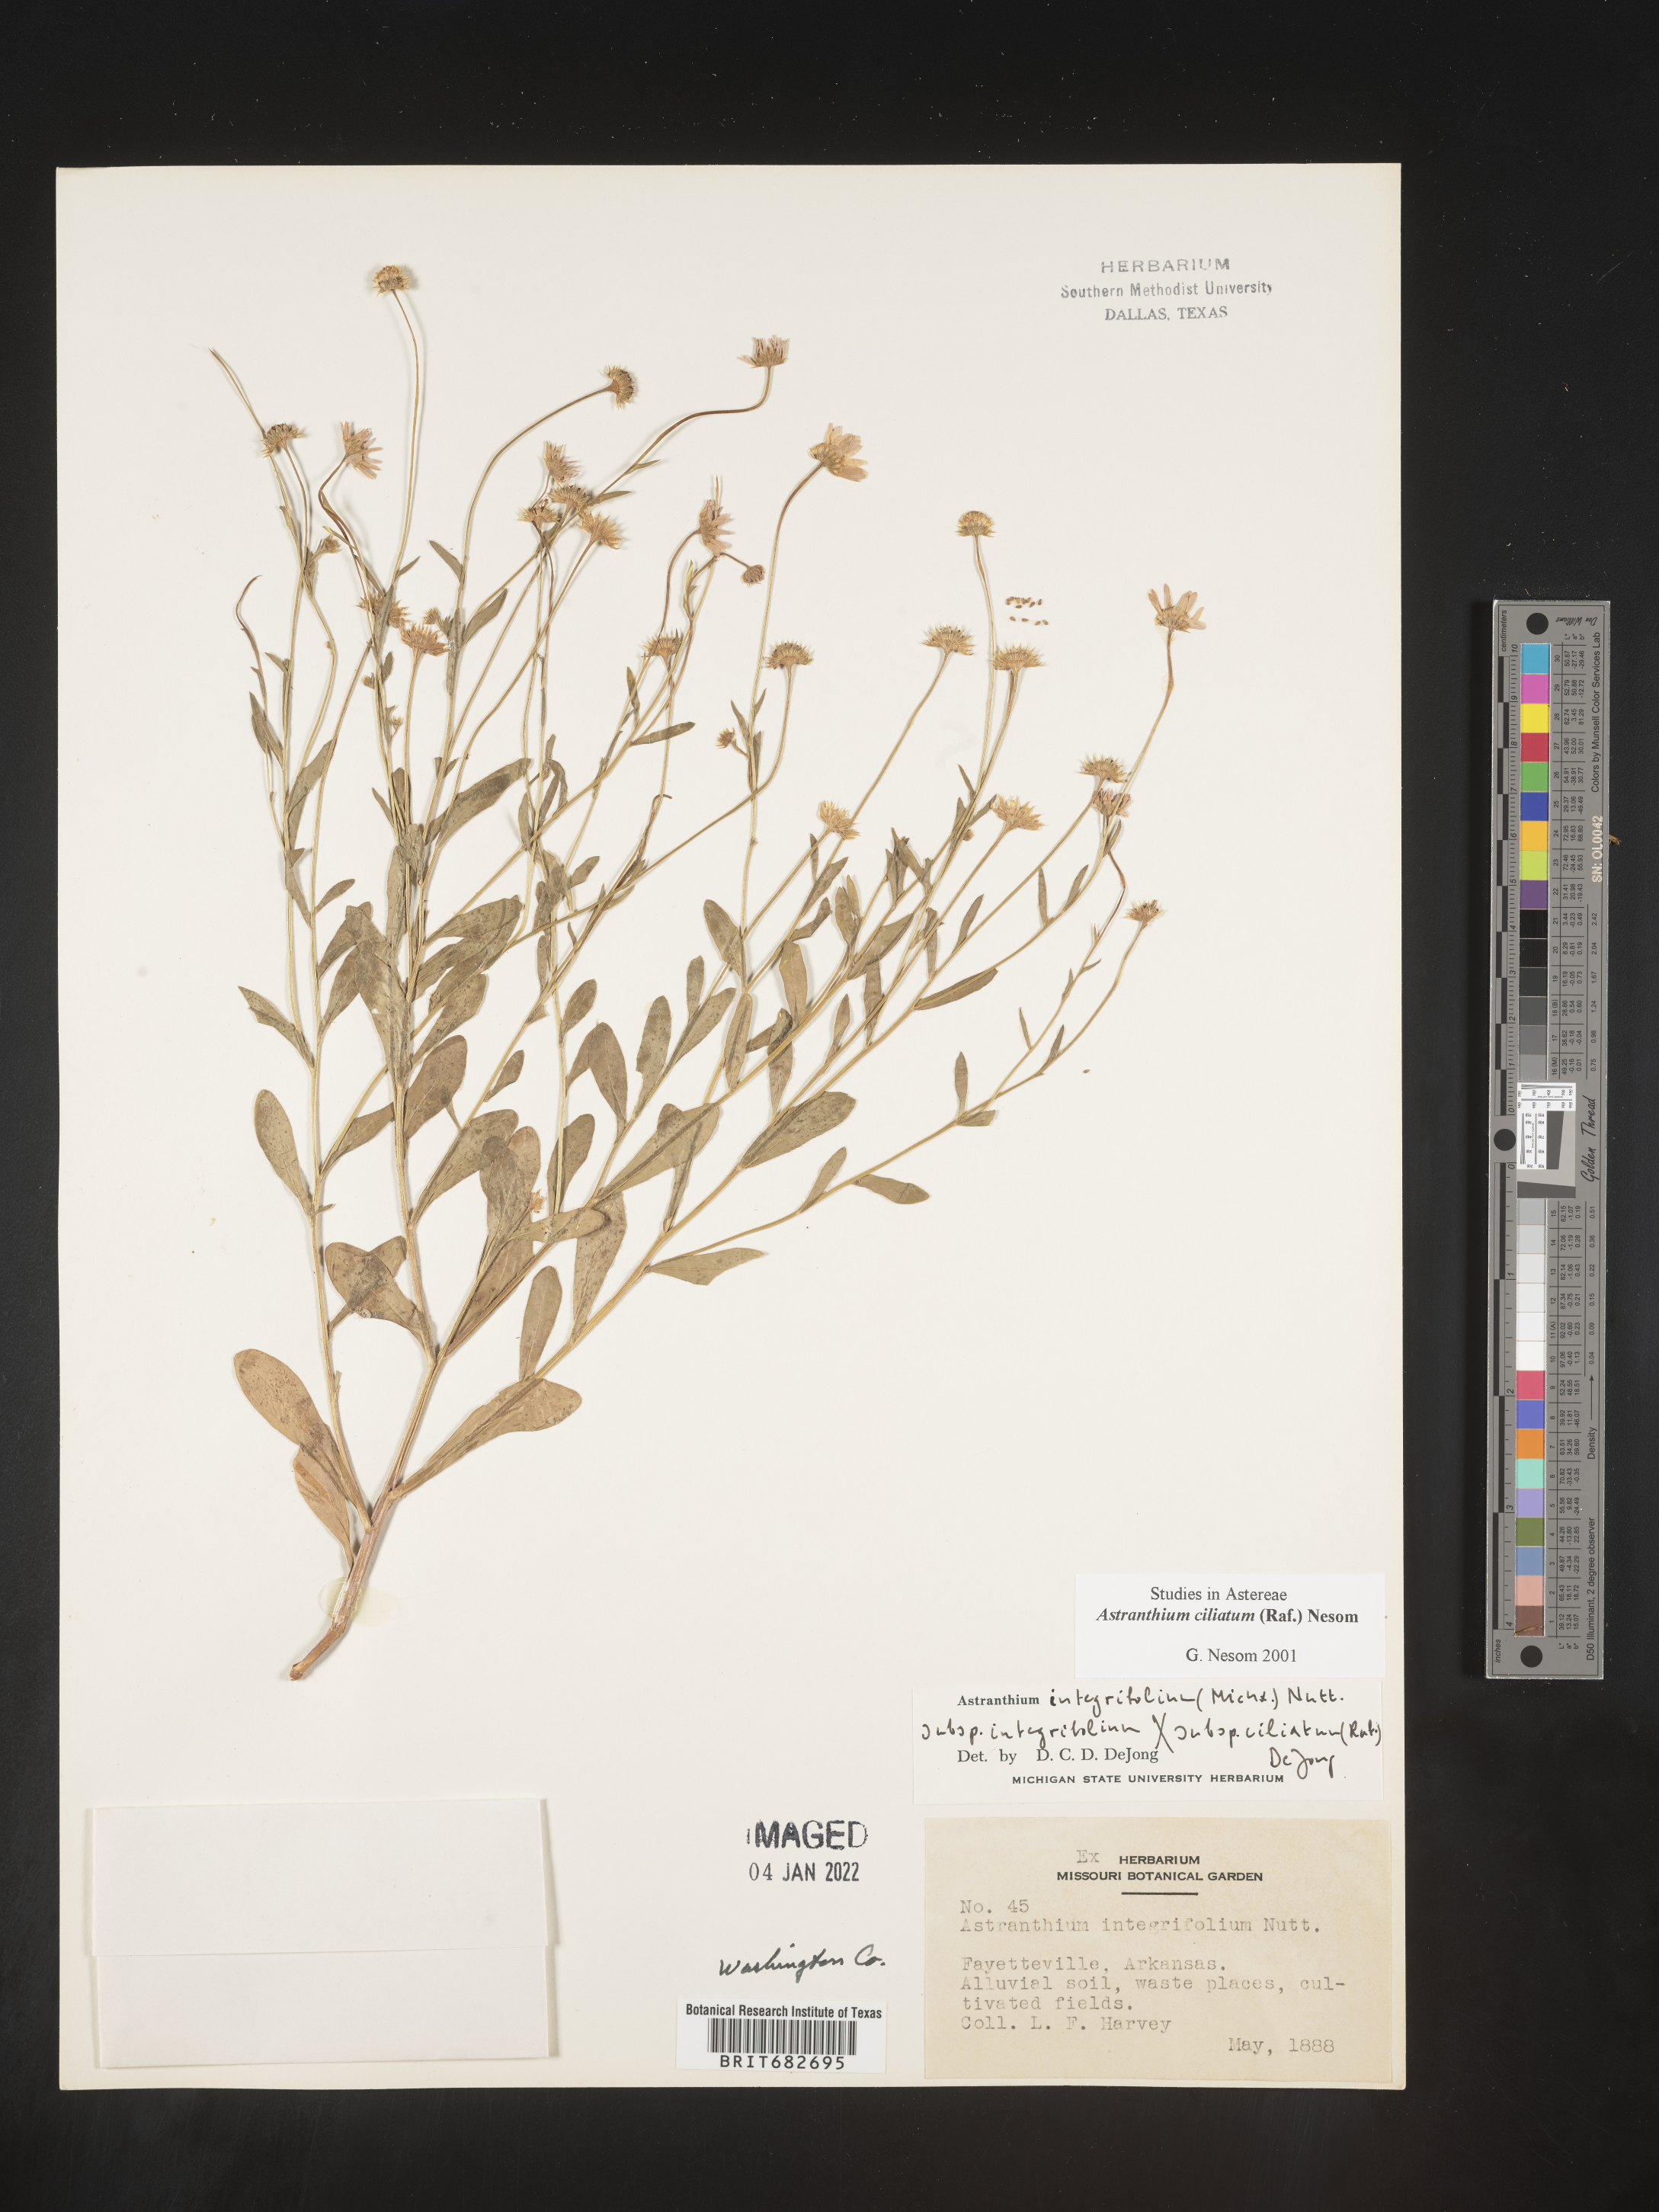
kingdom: Plantae
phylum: Tracheophyta
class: Magnoliopsida
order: Asterales
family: Asteraceae
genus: Astranthium
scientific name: Astranthium ciliatum
